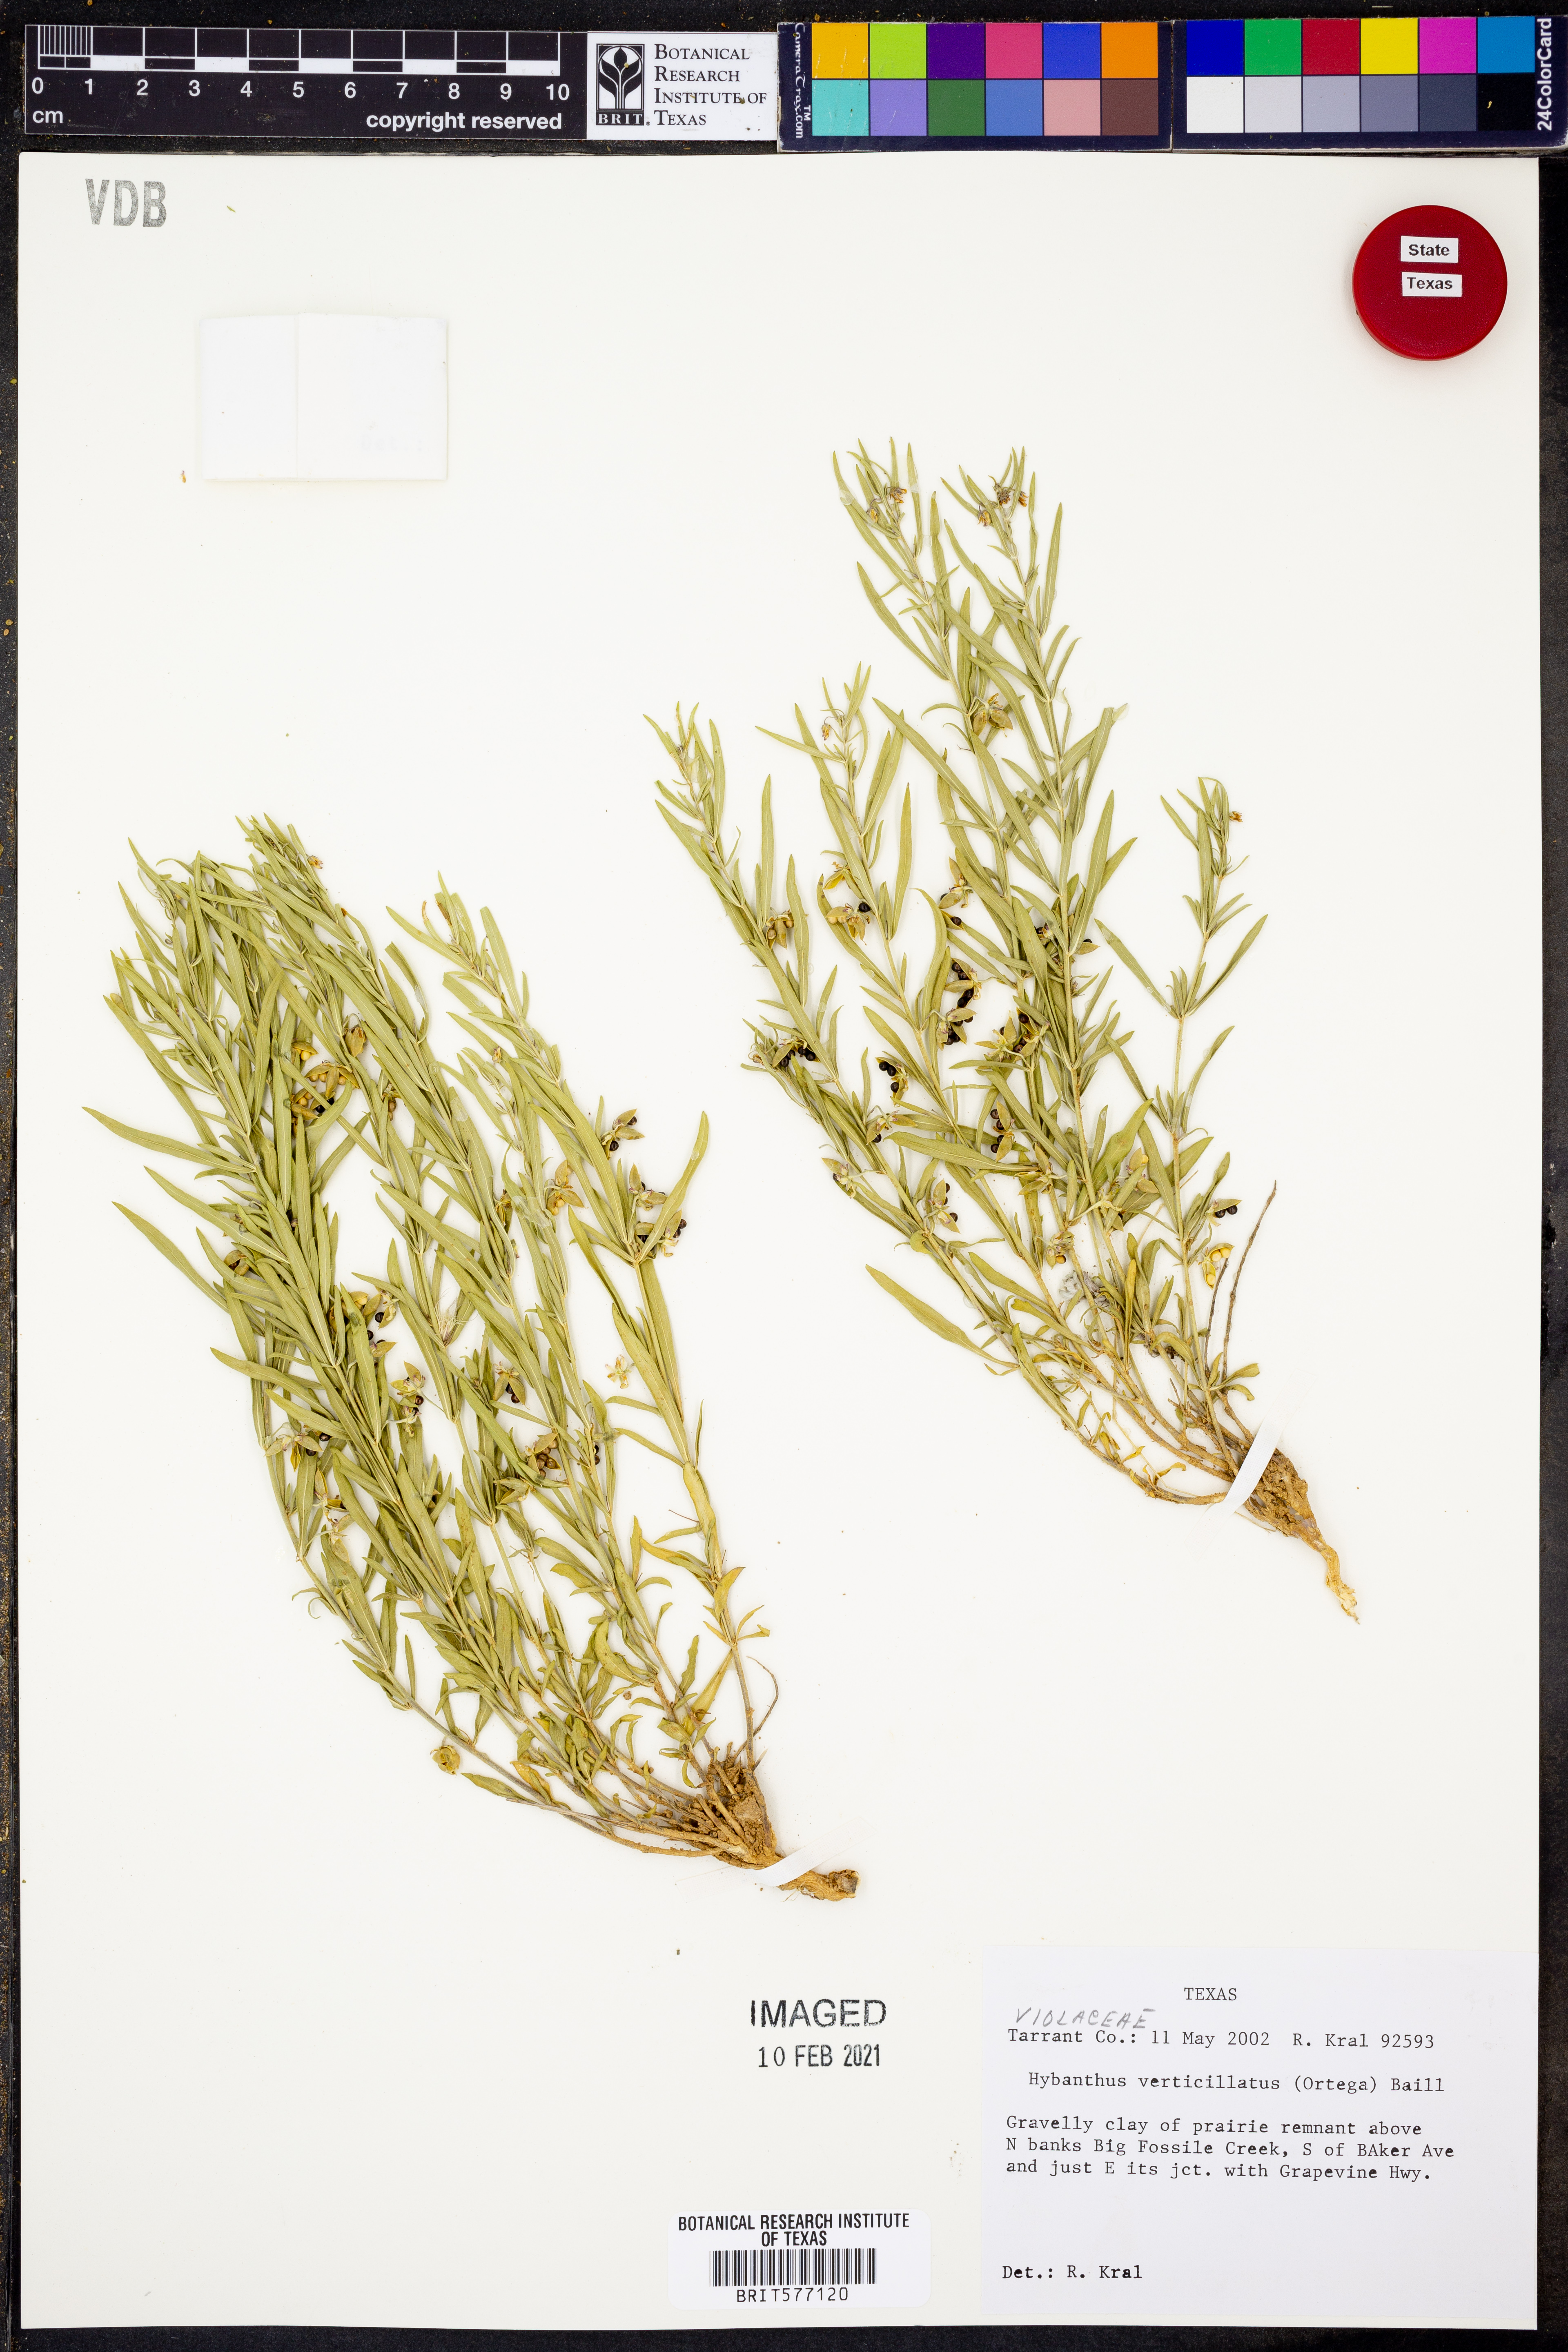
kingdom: Plantae
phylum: Tracheophyta
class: Magnoliopsida
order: Malpighiales
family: Violaceae
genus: Pombalia
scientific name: Pombalia verticillata
